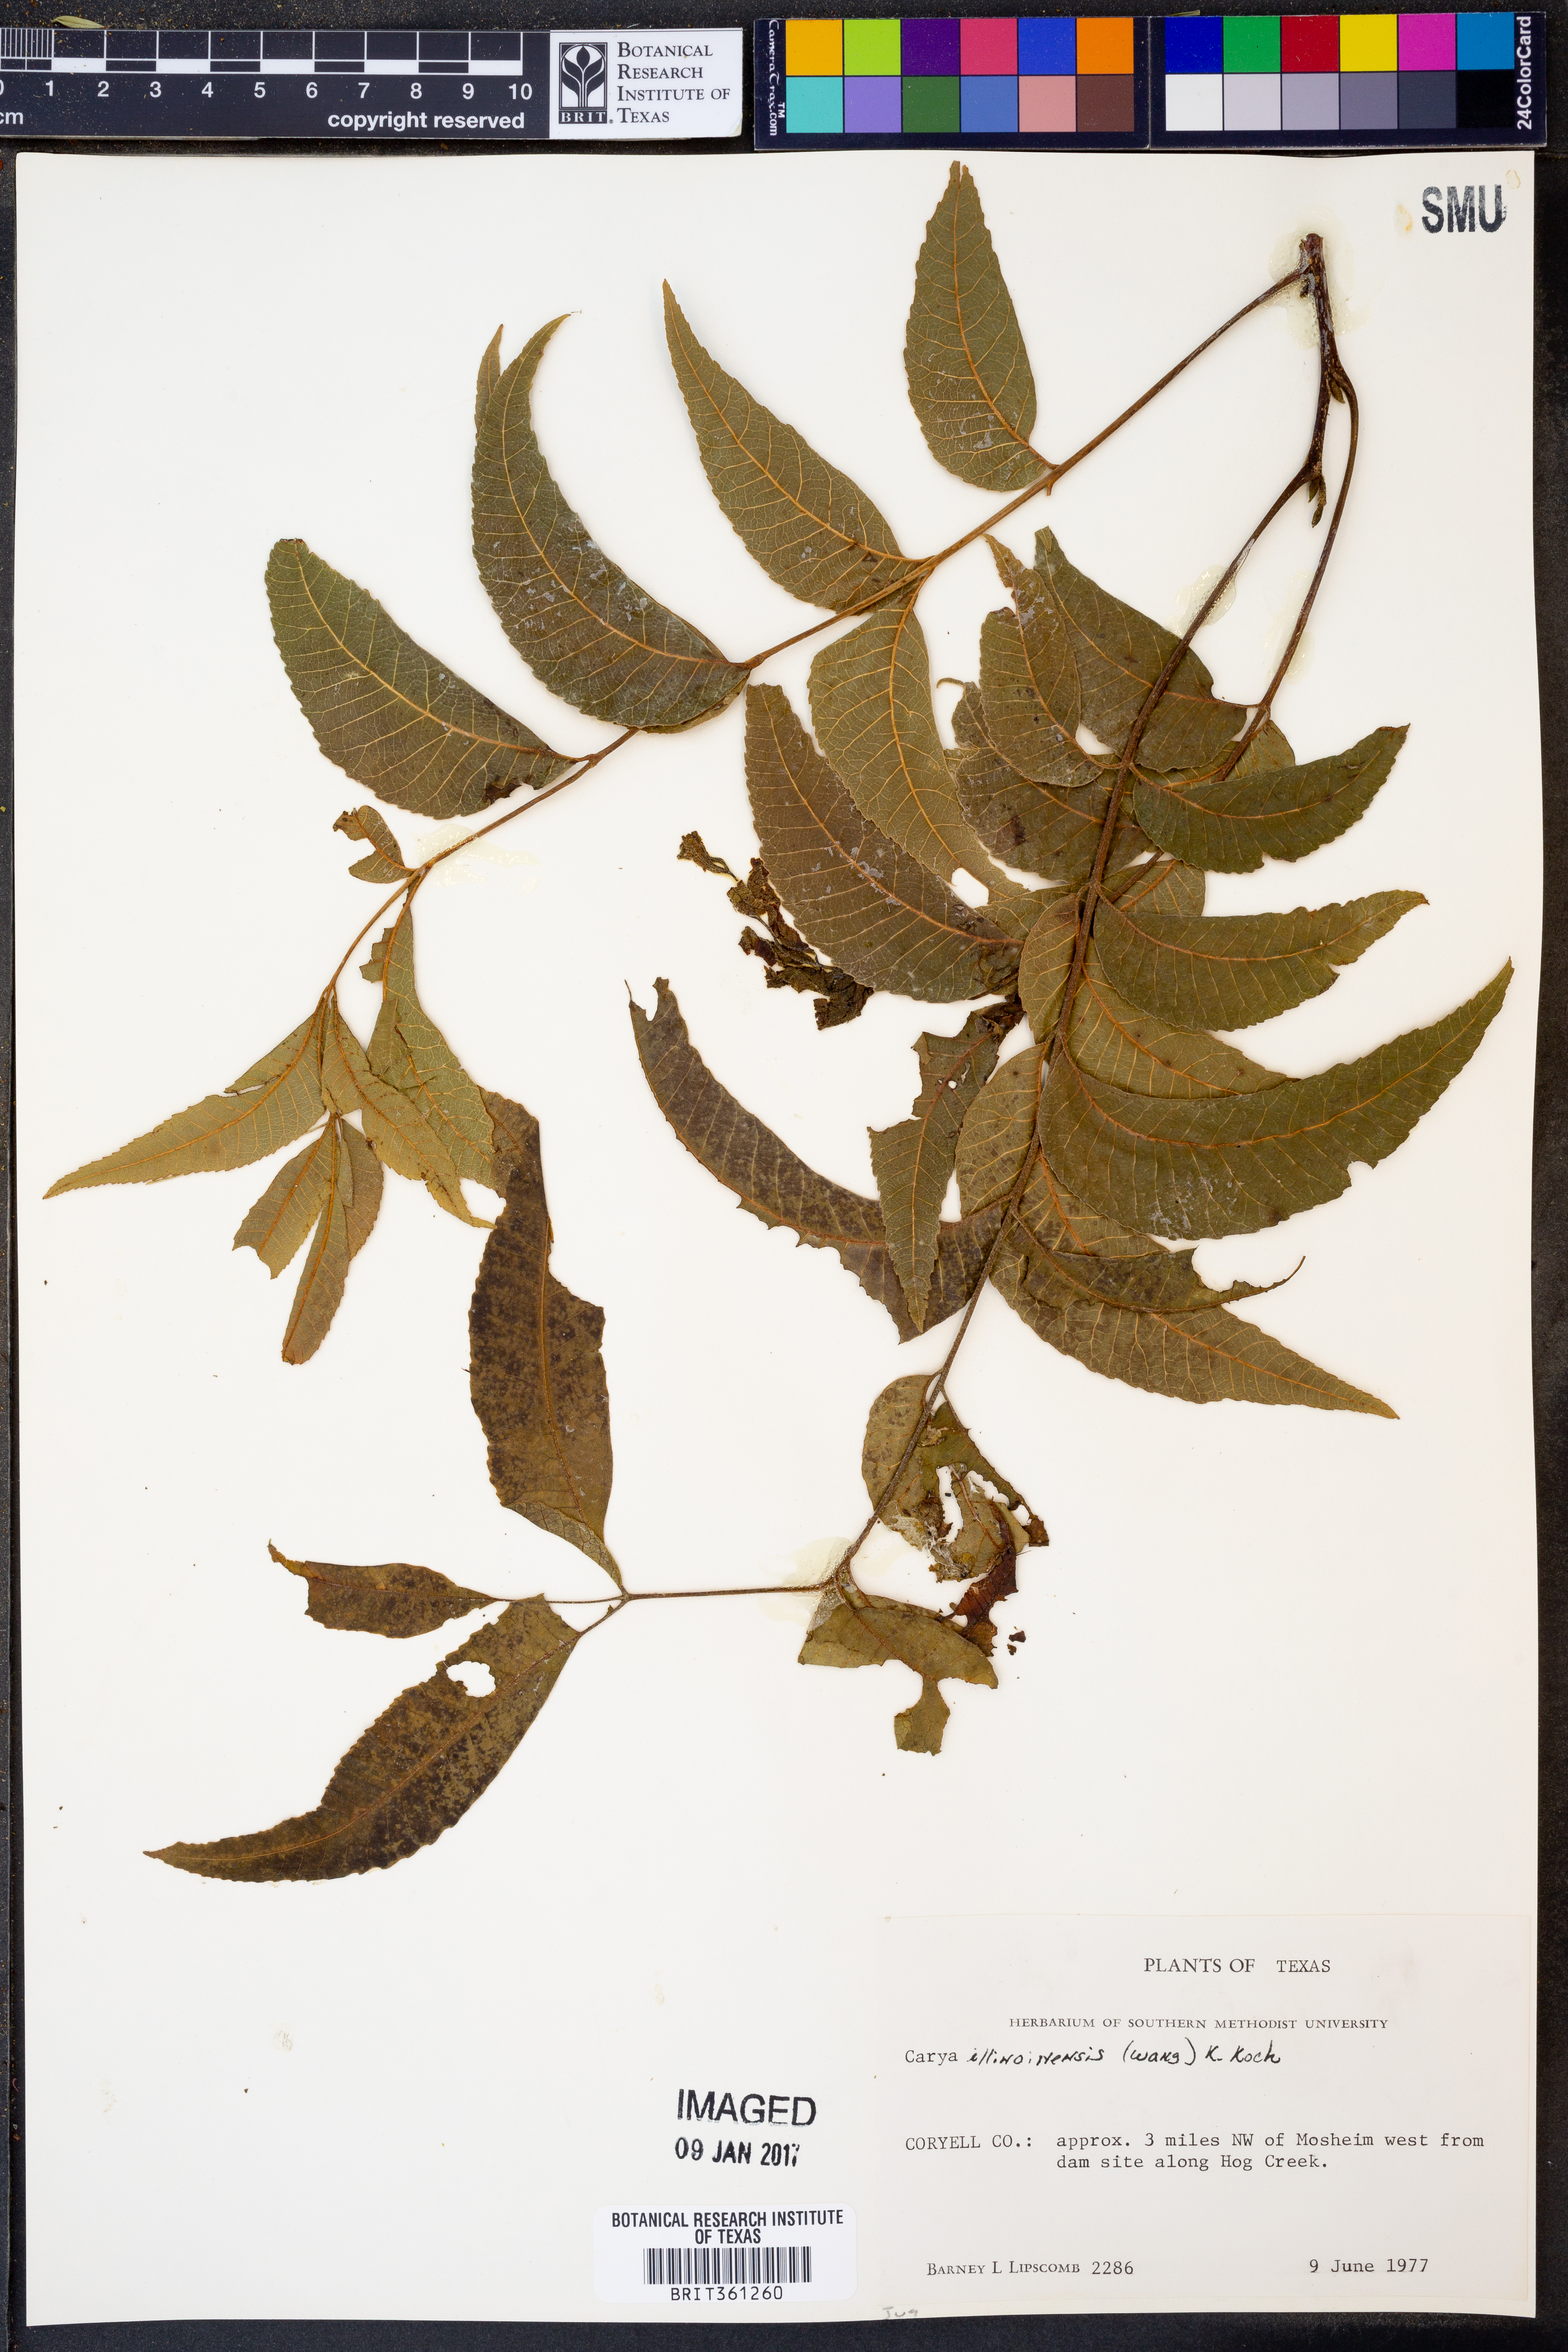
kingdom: Plantae
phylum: Tracheophyta
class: Magnoliopsida
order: Fagales
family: Juglandaceae
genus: Carya
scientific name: Carya illinoinensis
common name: Pecan
